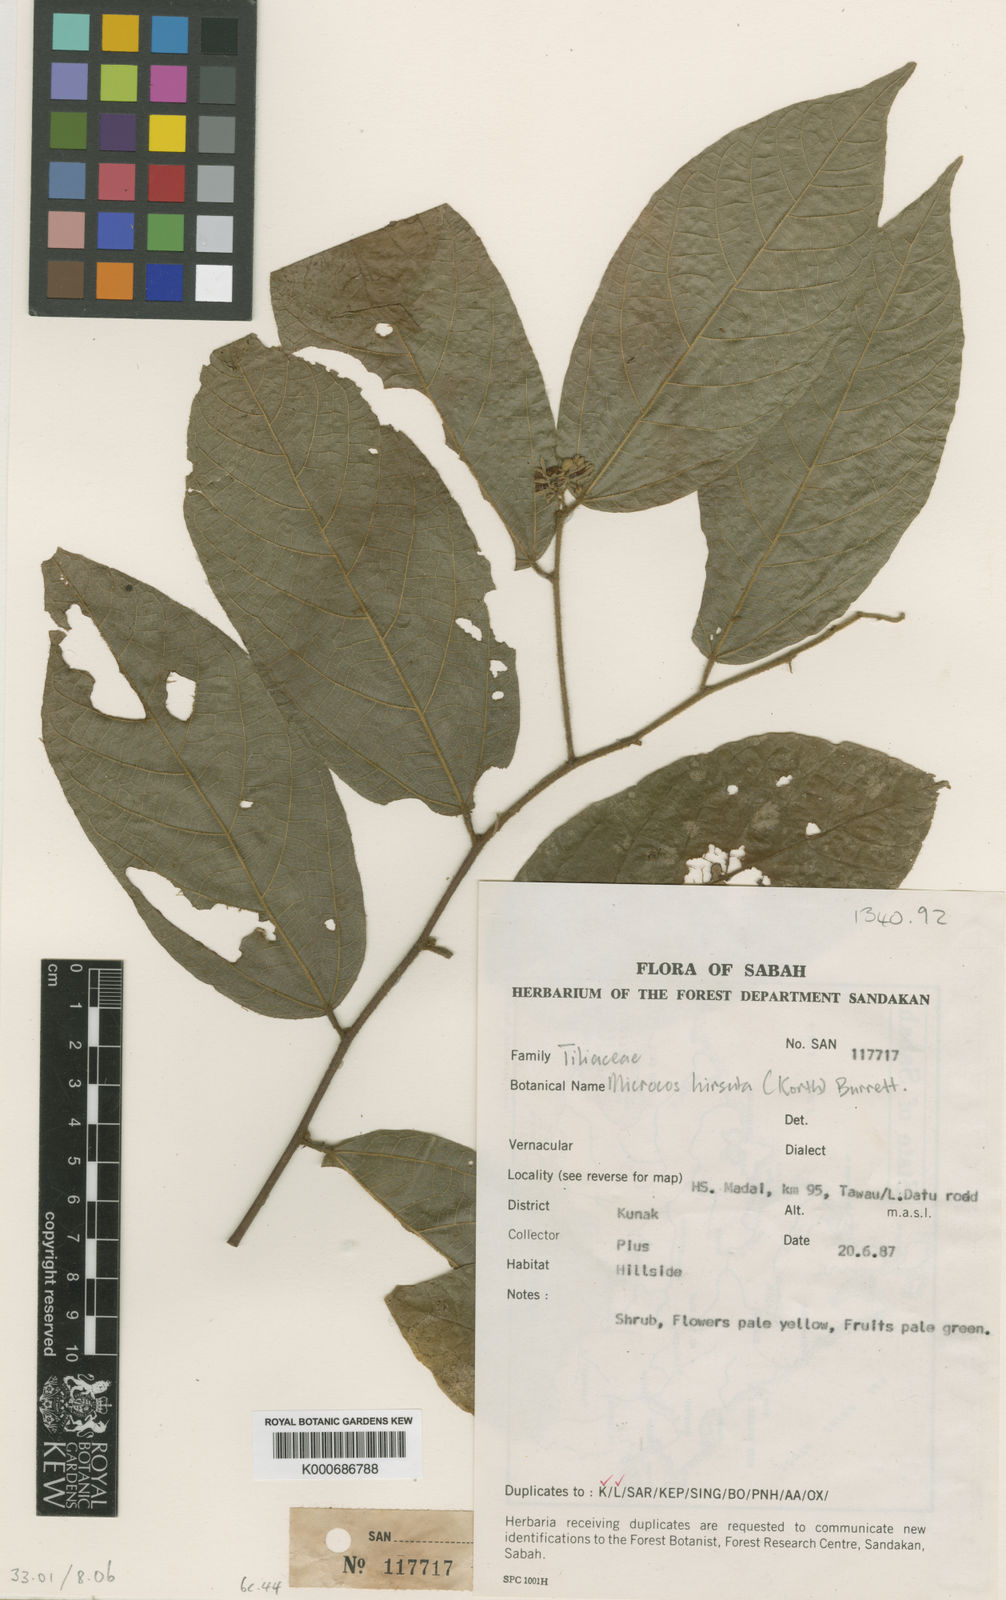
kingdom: Plantae
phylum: Tracheophyta
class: Magnoliopsida
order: Malvales
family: Malvaceae
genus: Microcos
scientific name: Microcos hirsuta
